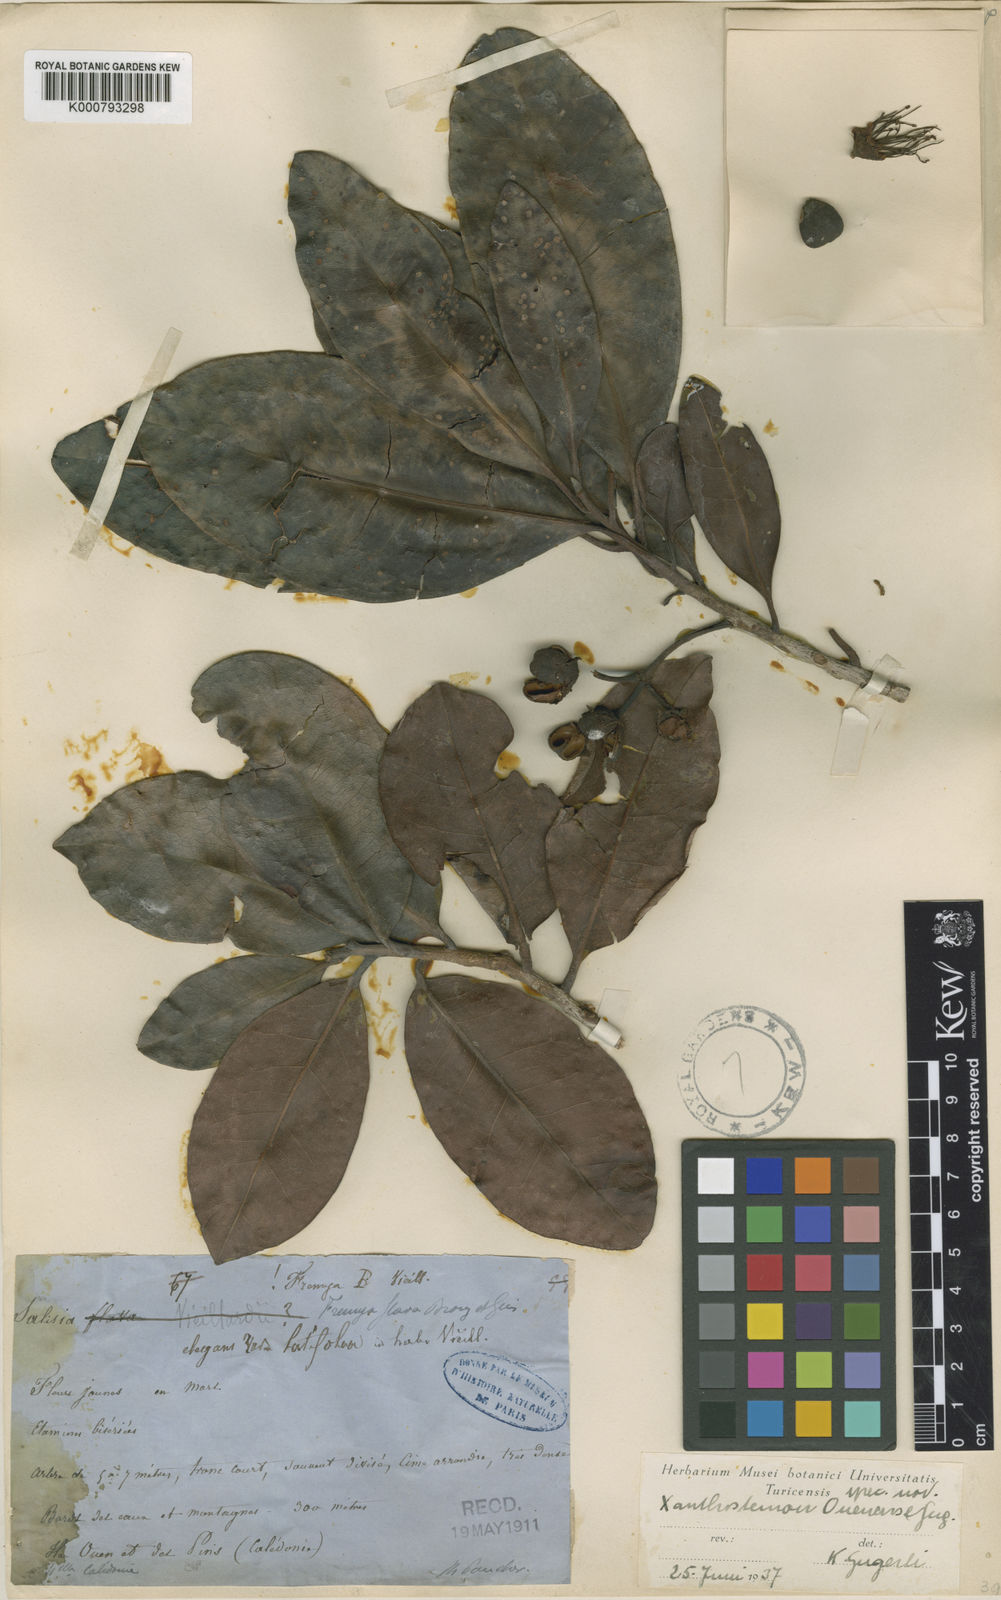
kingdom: Plantae
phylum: Tracheophyta
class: Magnoliopsida
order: Myrtales
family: Myrtaceae
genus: Xanthostemon
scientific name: Xanthostemon multiflorus
